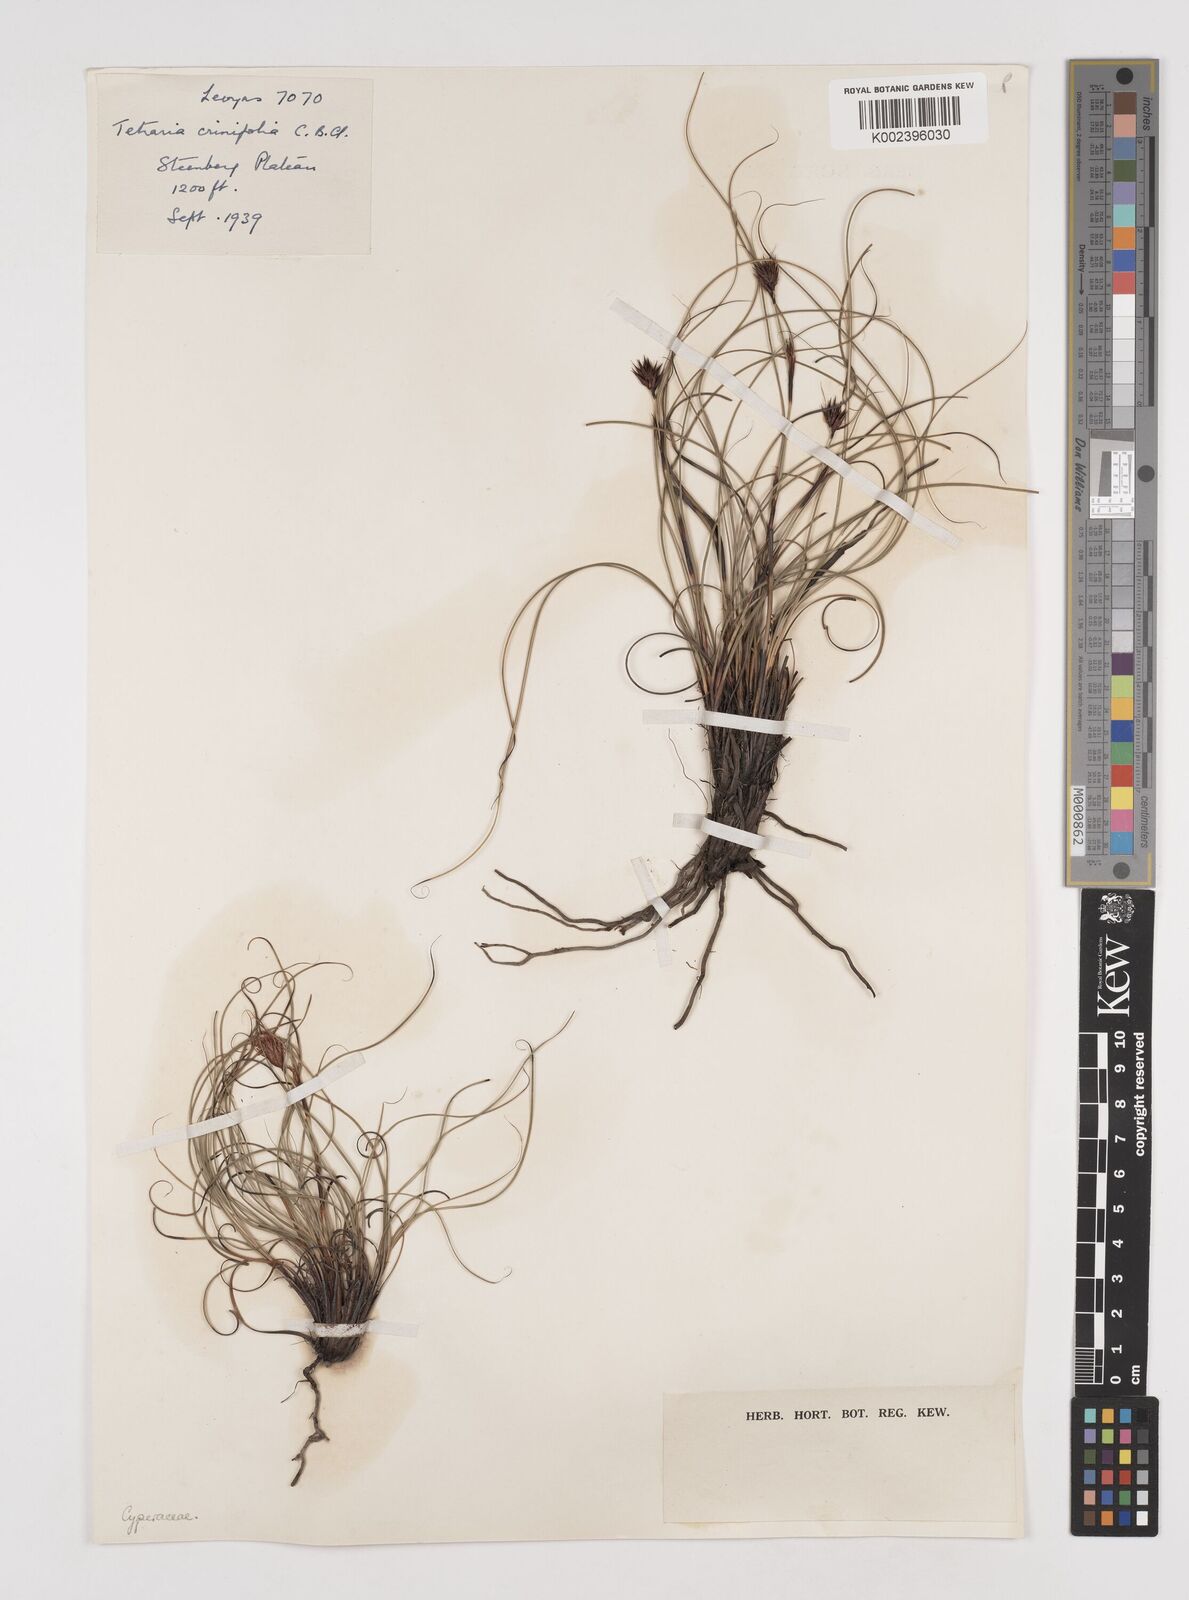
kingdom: Plantae
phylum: Tracheophyta
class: Liliopsida
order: Poales
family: Cyperaceae
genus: Tetraria
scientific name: Tetraria crinifolia
